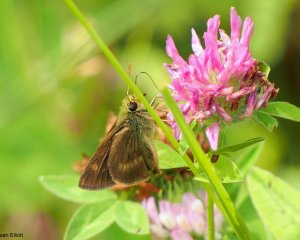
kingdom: Animalia
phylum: Arthropoda
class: Insecta
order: Lepidoptera
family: Hesperiidae
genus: Polites
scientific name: Polites
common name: Crossline Skipper
